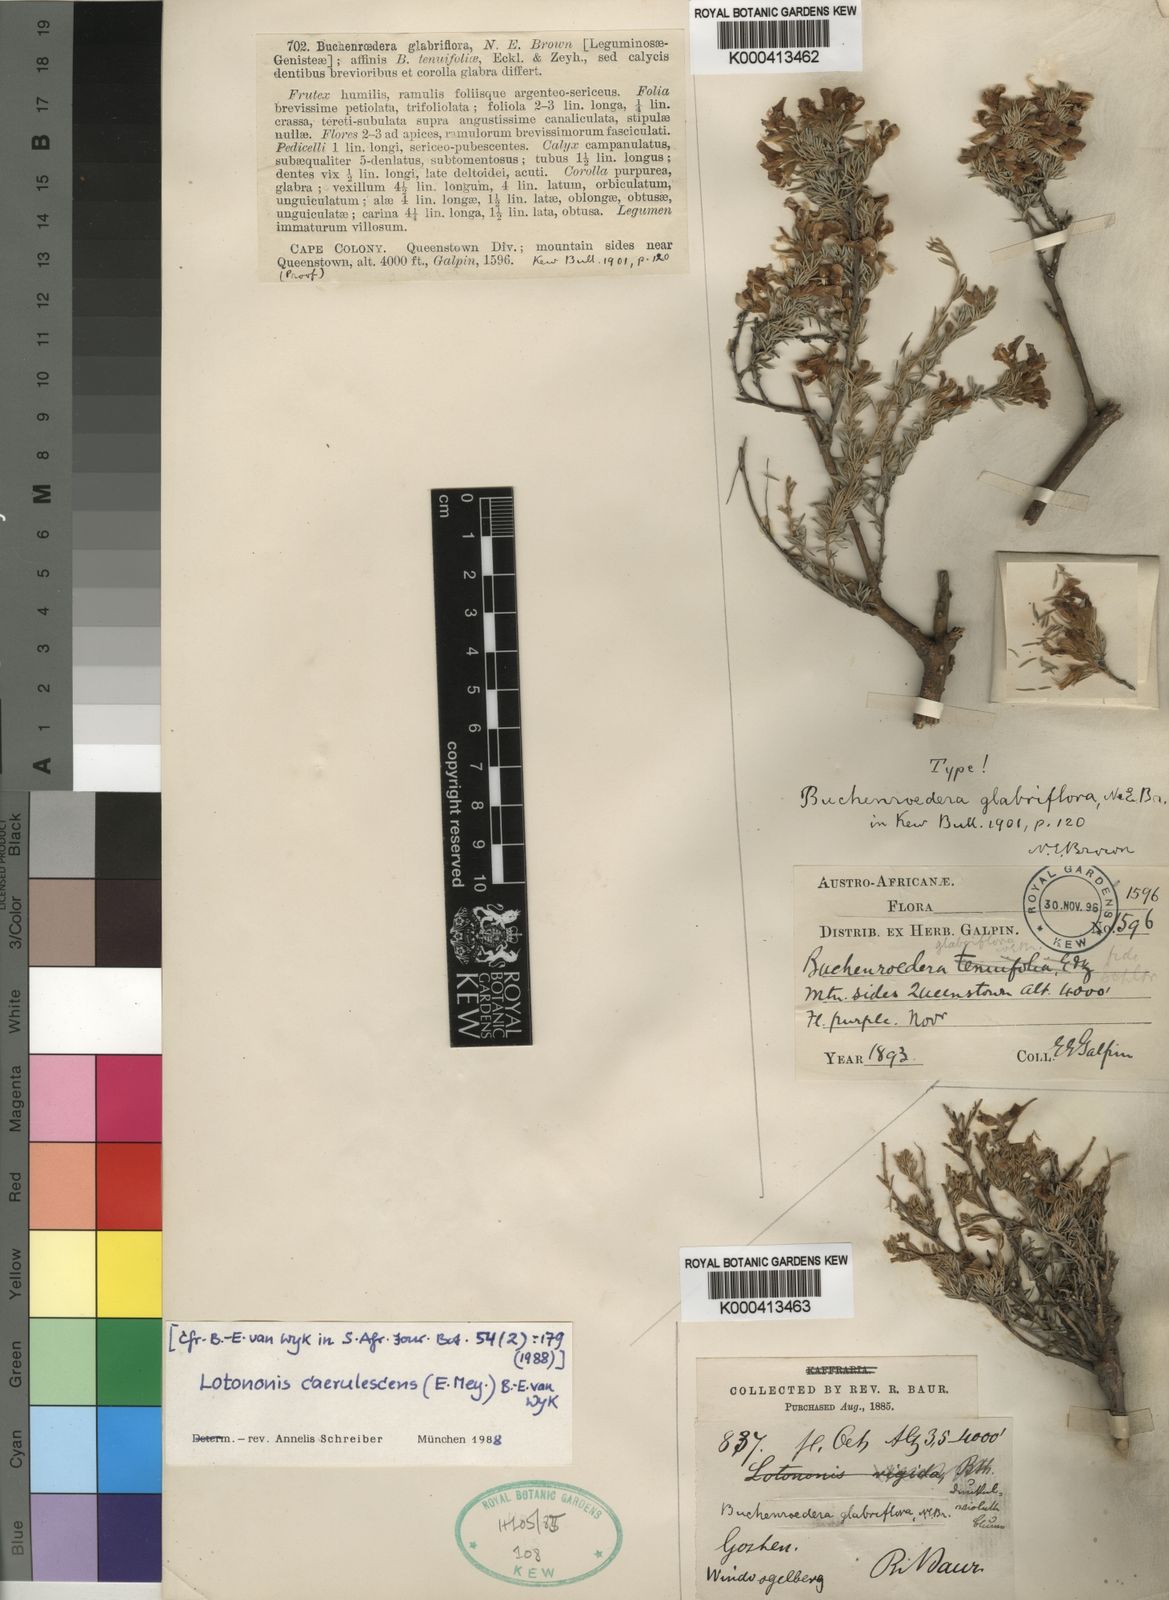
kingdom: Plantae
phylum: Tracheophyta
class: Magnoliopsida
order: Fabales
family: Fabaceae
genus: Lotononis
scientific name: Lotononis caerulescens
